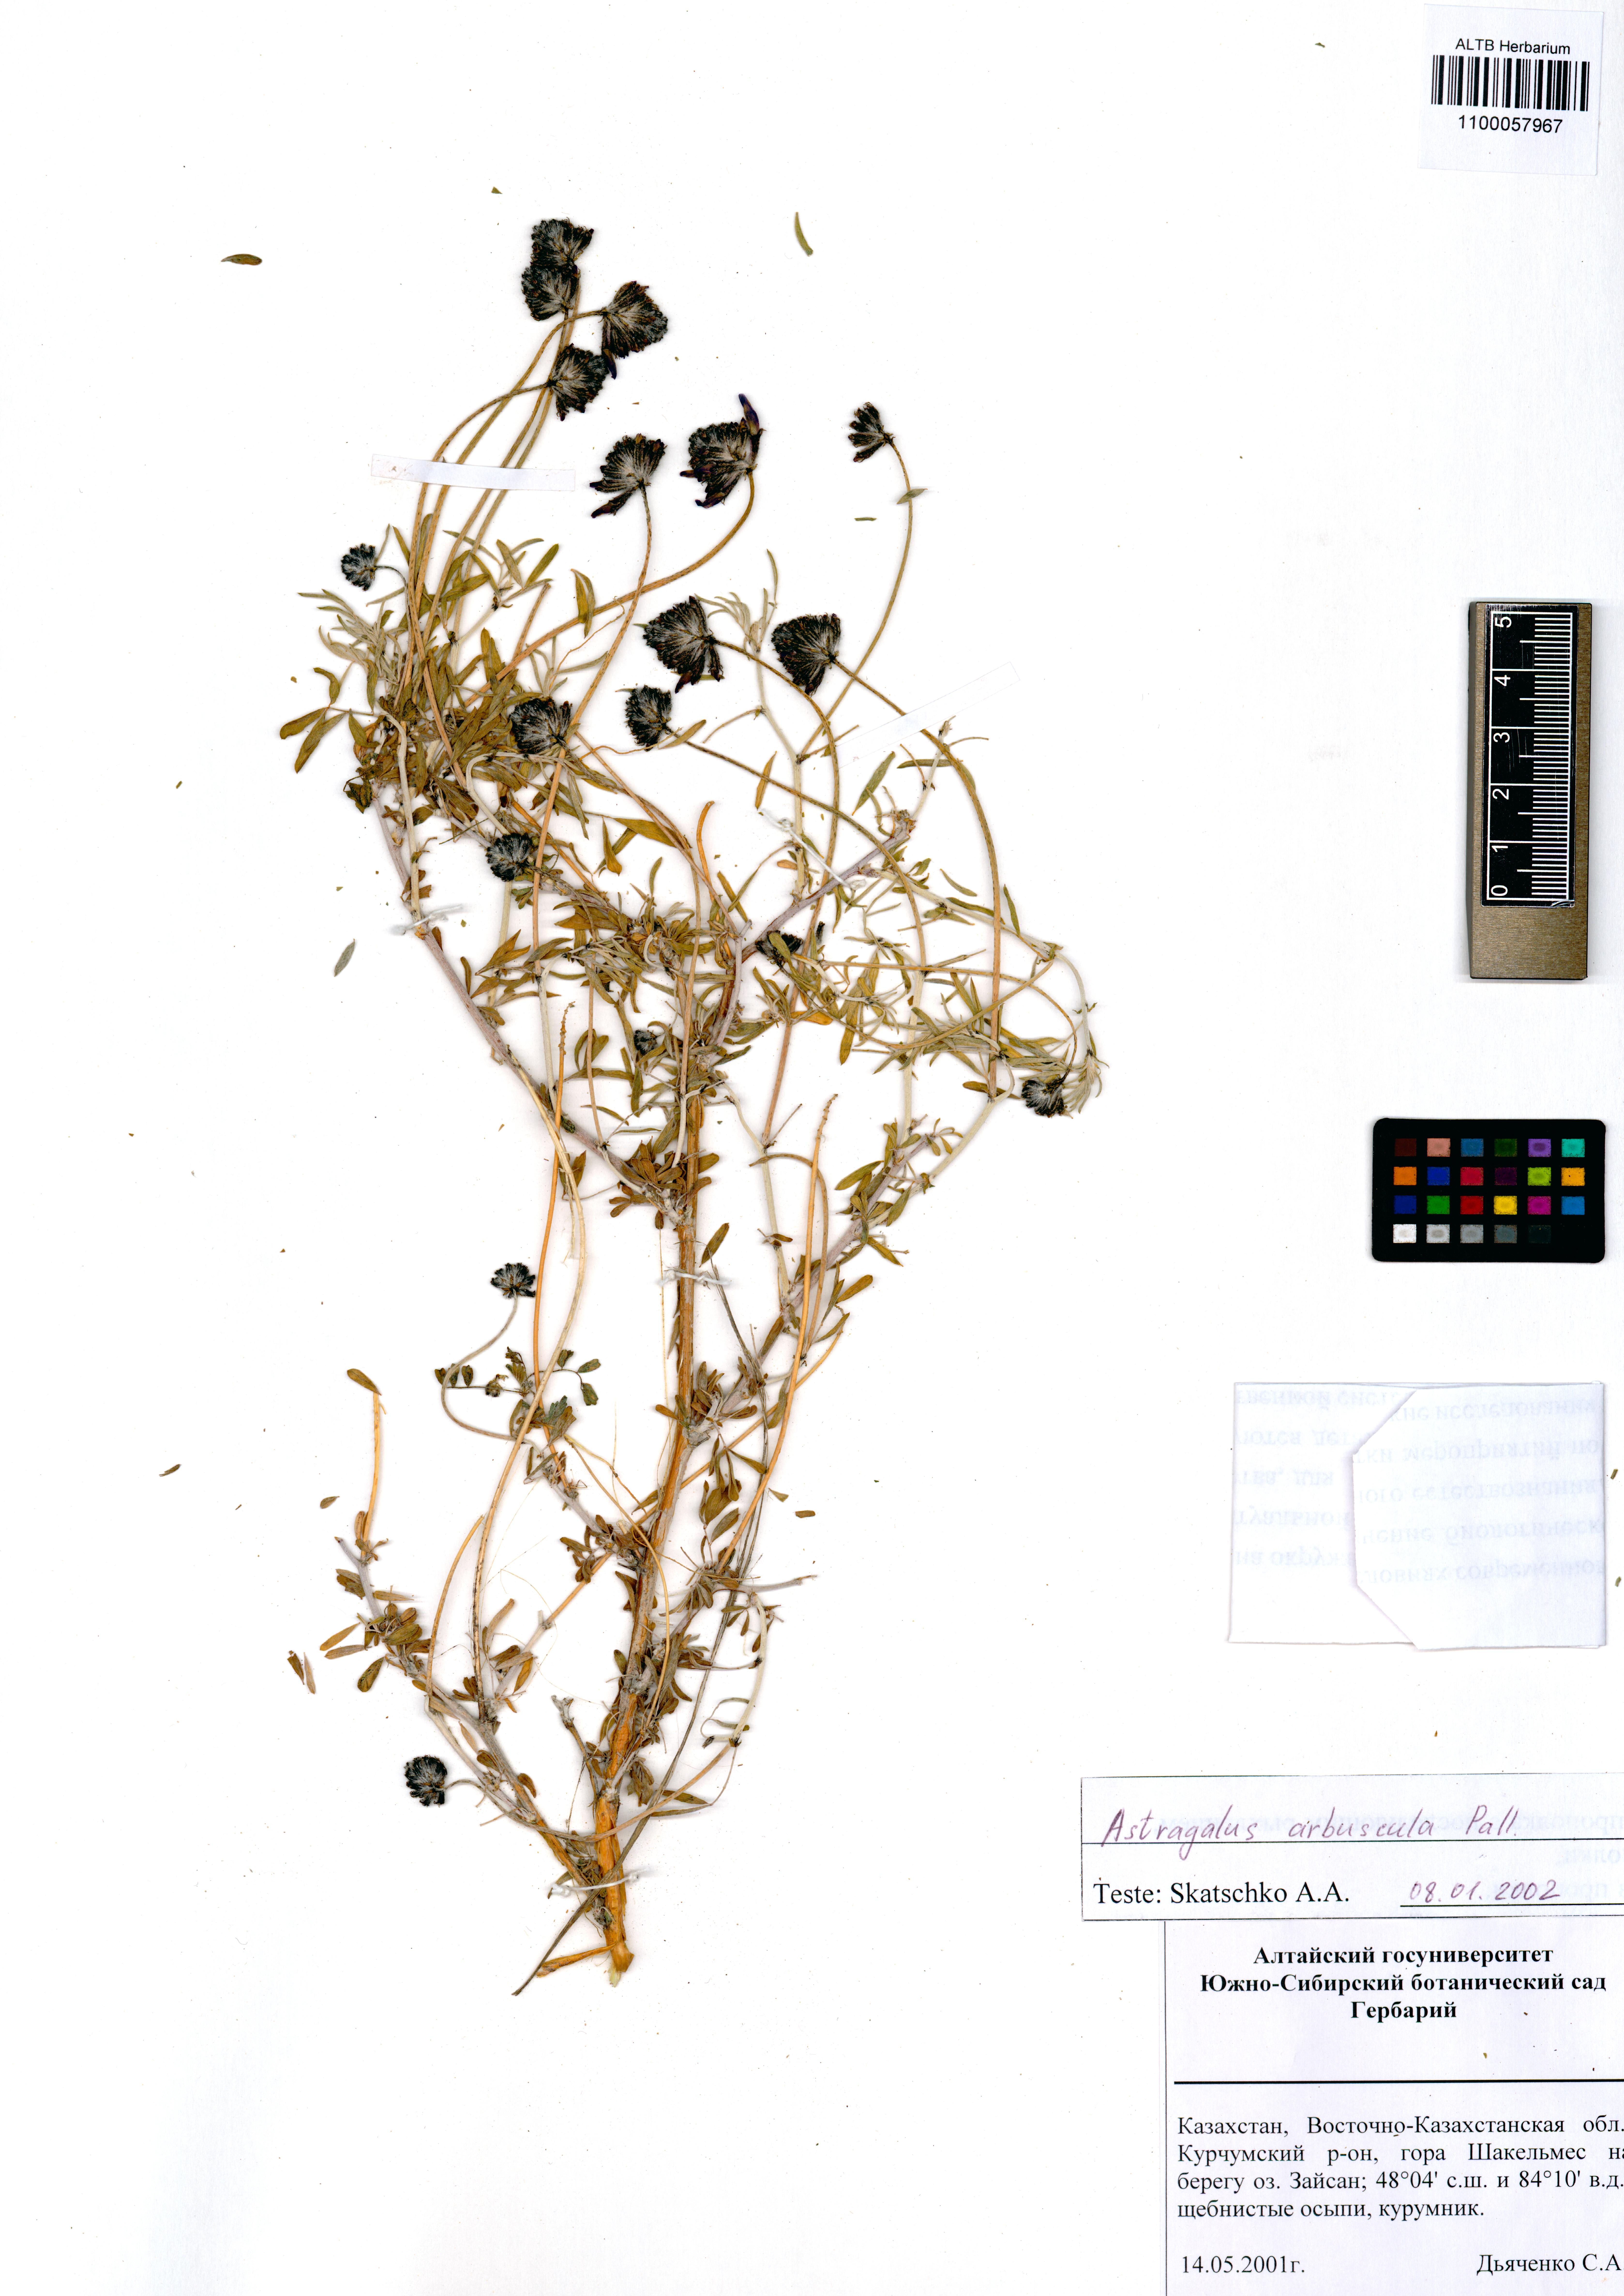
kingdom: Plantae
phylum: Tracheophyta
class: Magnoliopsida
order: Fabales
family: Fabaceae
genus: Astragalus
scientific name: Astragalus arbuscula
